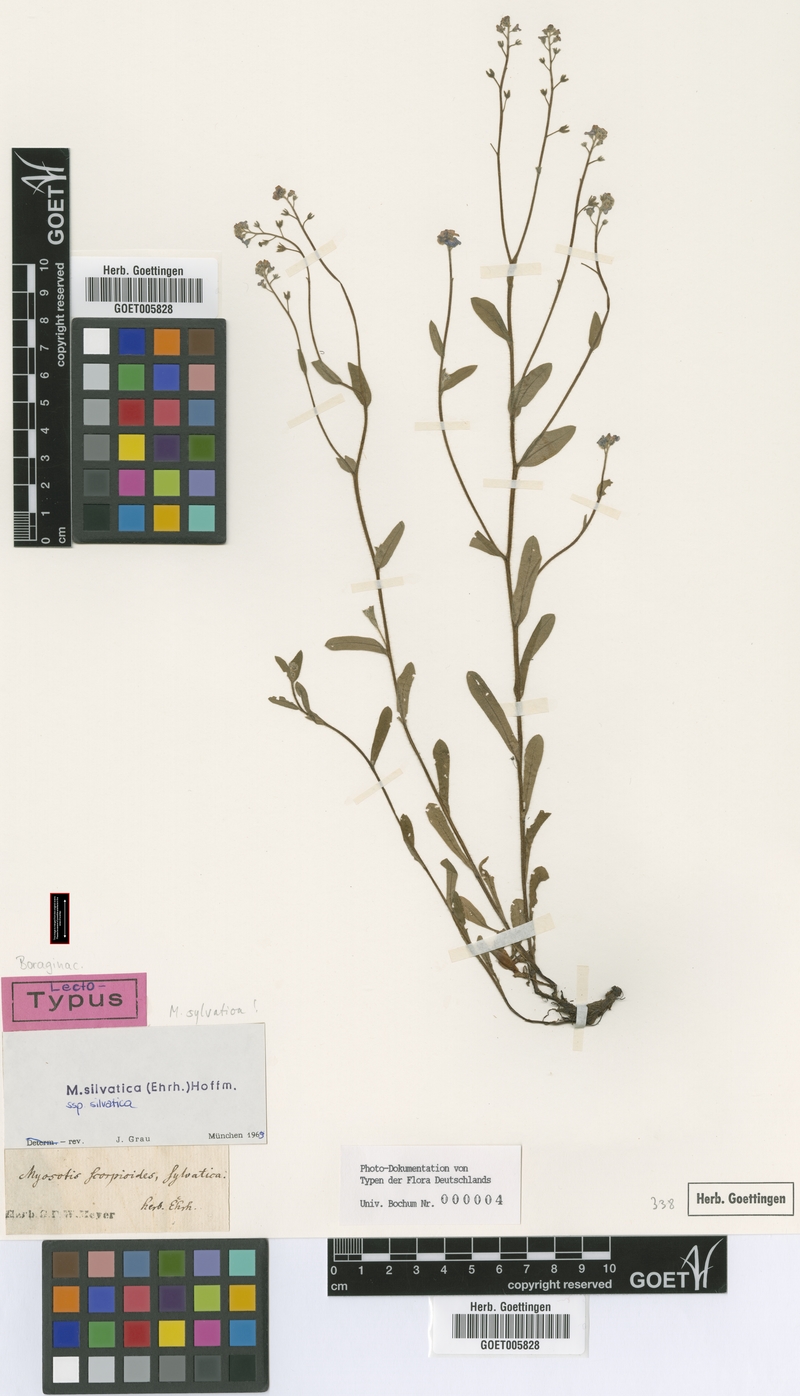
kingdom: Plantae
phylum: Tracheophyta
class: Magnoliopsida
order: Boraginales
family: Boraginaceae
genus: Myosotis
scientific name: Myosotis sylvatica
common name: Wood forget-me-not
